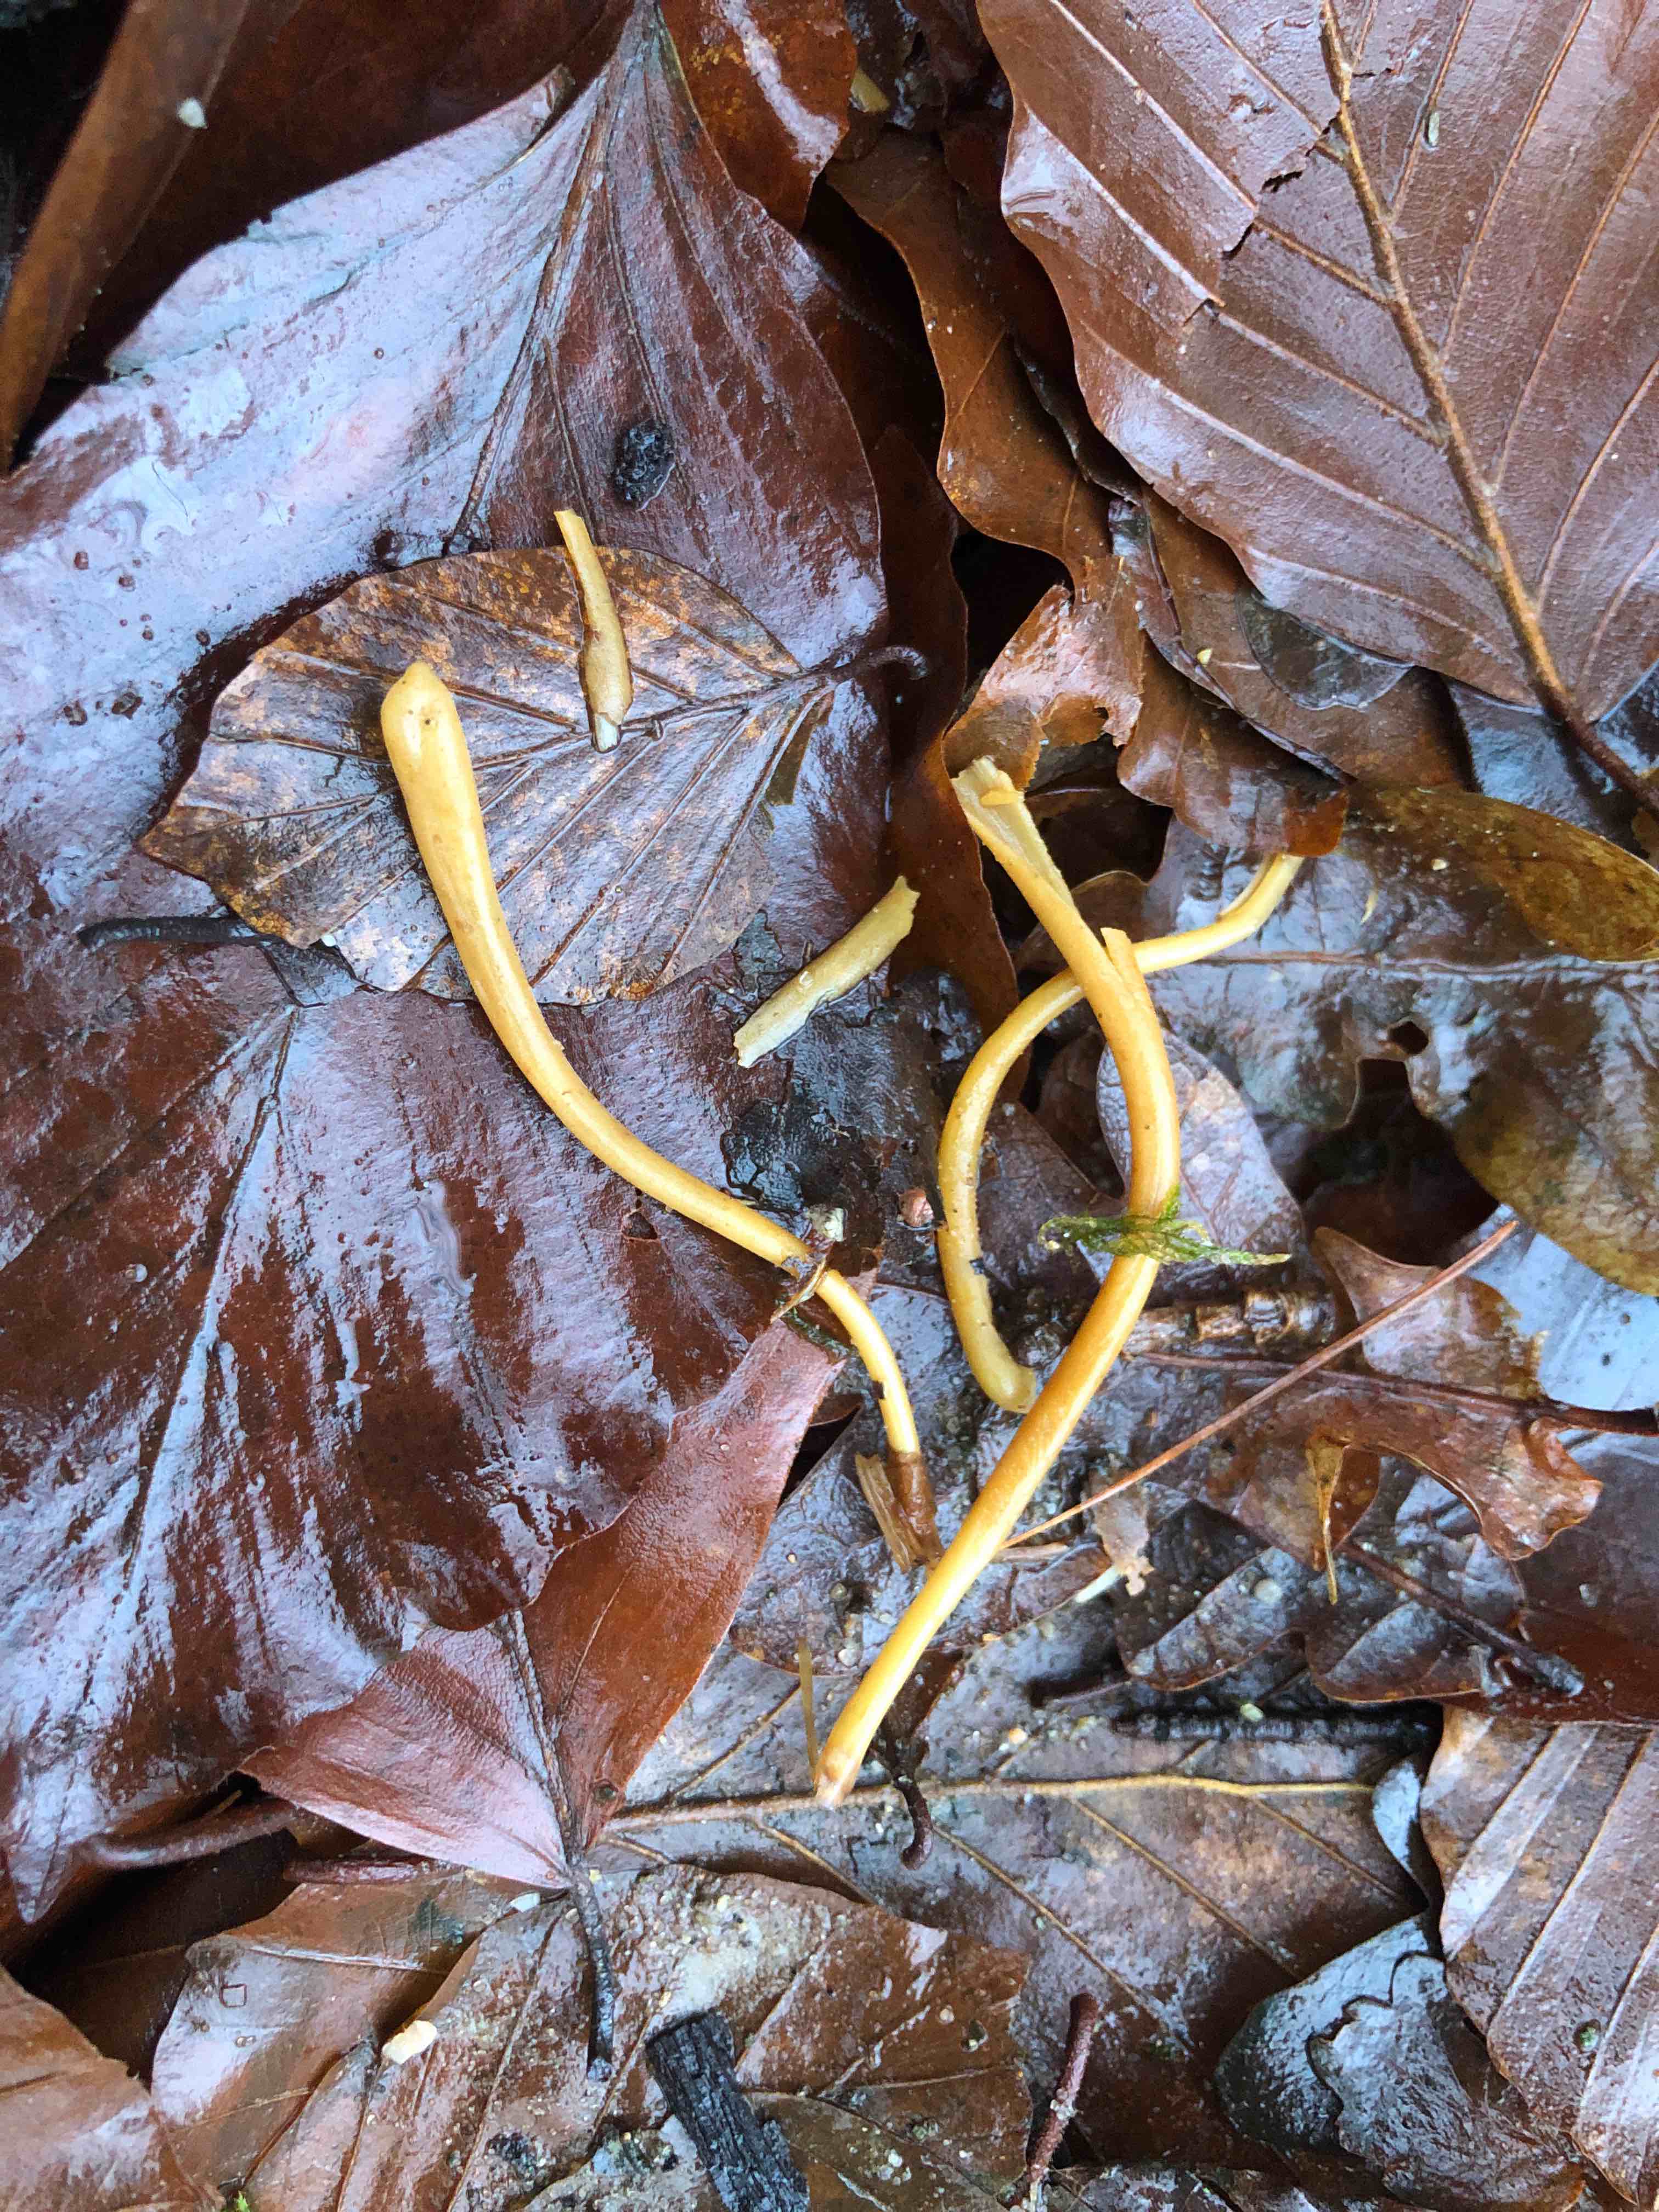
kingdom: Fungi
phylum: Basidiomycota
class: Agaricomycetes
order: Agaricales
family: Typhulaceae
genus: Typhula
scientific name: Typhula fistulosa
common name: pibet rørkølle
